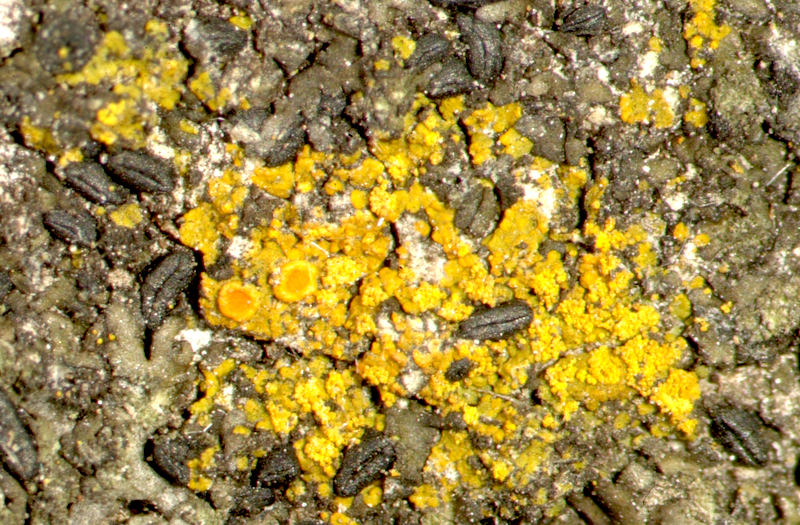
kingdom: Fungi
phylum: Ascomycota
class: Lecanoromycetes
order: Caliciales
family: Physciaceae
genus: Hyperphyscia
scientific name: Hyperphyscia
